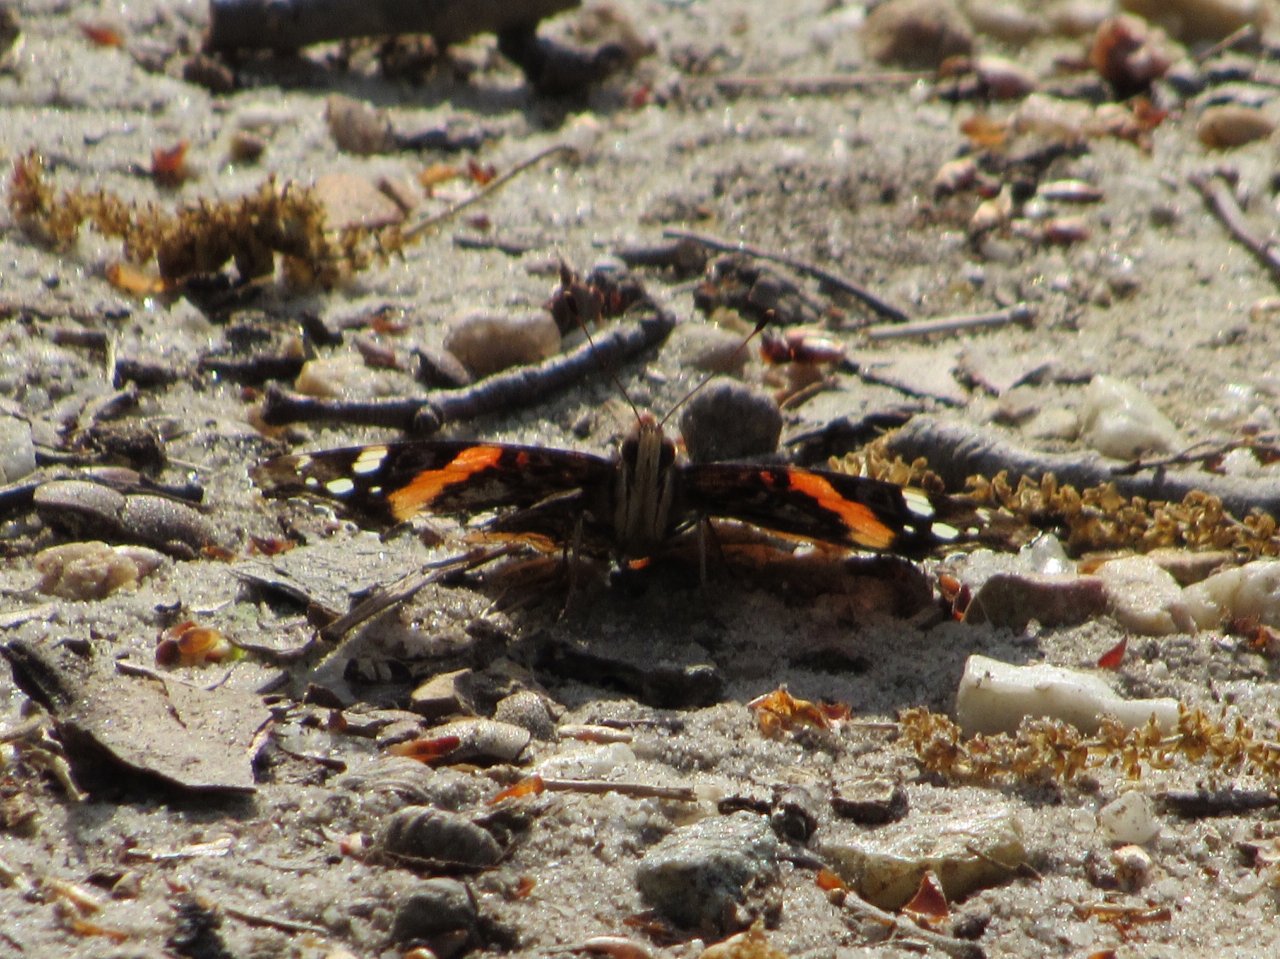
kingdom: Animalia
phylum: Arthropoda
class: Insecta
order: Lepidoptera
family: Nymphalidae
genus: Vanessa
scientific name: Vanessa atalanta
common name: Red Admiral
